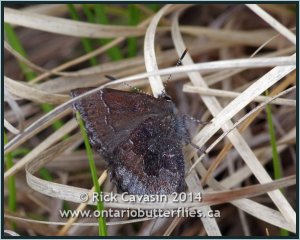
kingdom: Animalia
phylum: Arthropoda
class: Insecta
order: Lepidoptera
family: Lycaenidae
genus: Callophrys
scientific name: Callophrys polios
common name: Hoary Elfin
